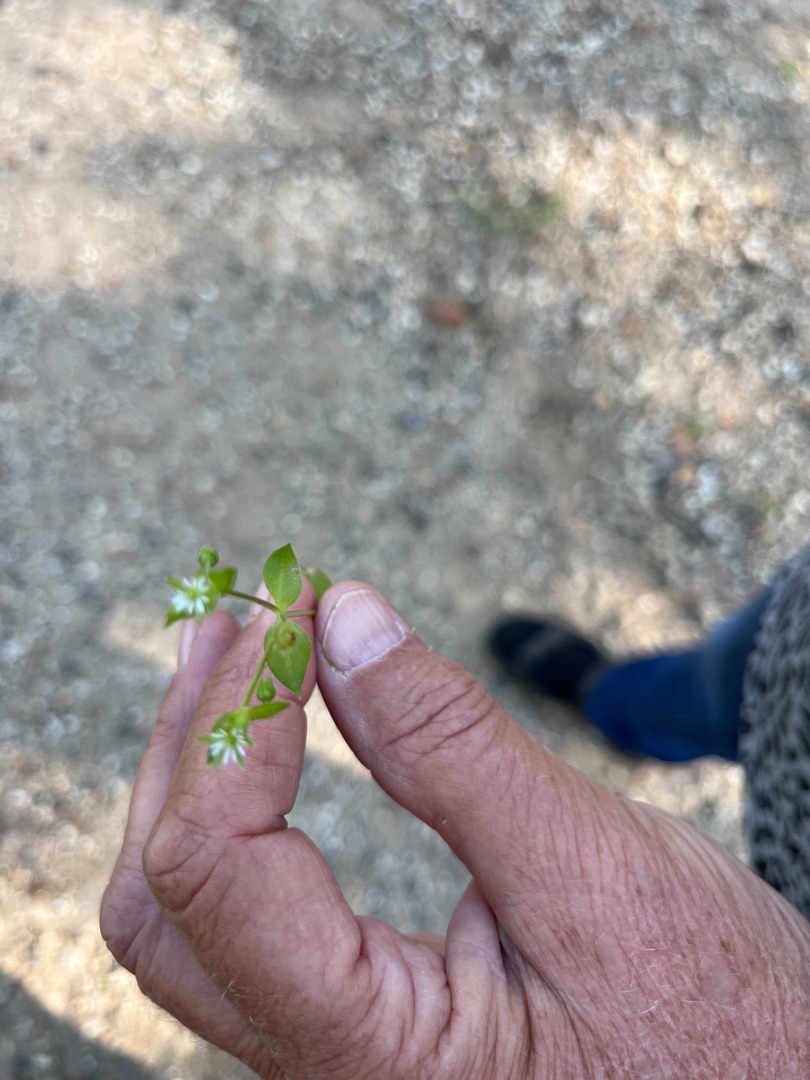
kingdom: Plantae
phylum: Tracheophyta
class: Magnoliopsida
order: Caryophyllales
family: Caryophyllaceae
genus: Stellaria
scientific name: Stellaria media
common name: Almindelig fuglegræs
